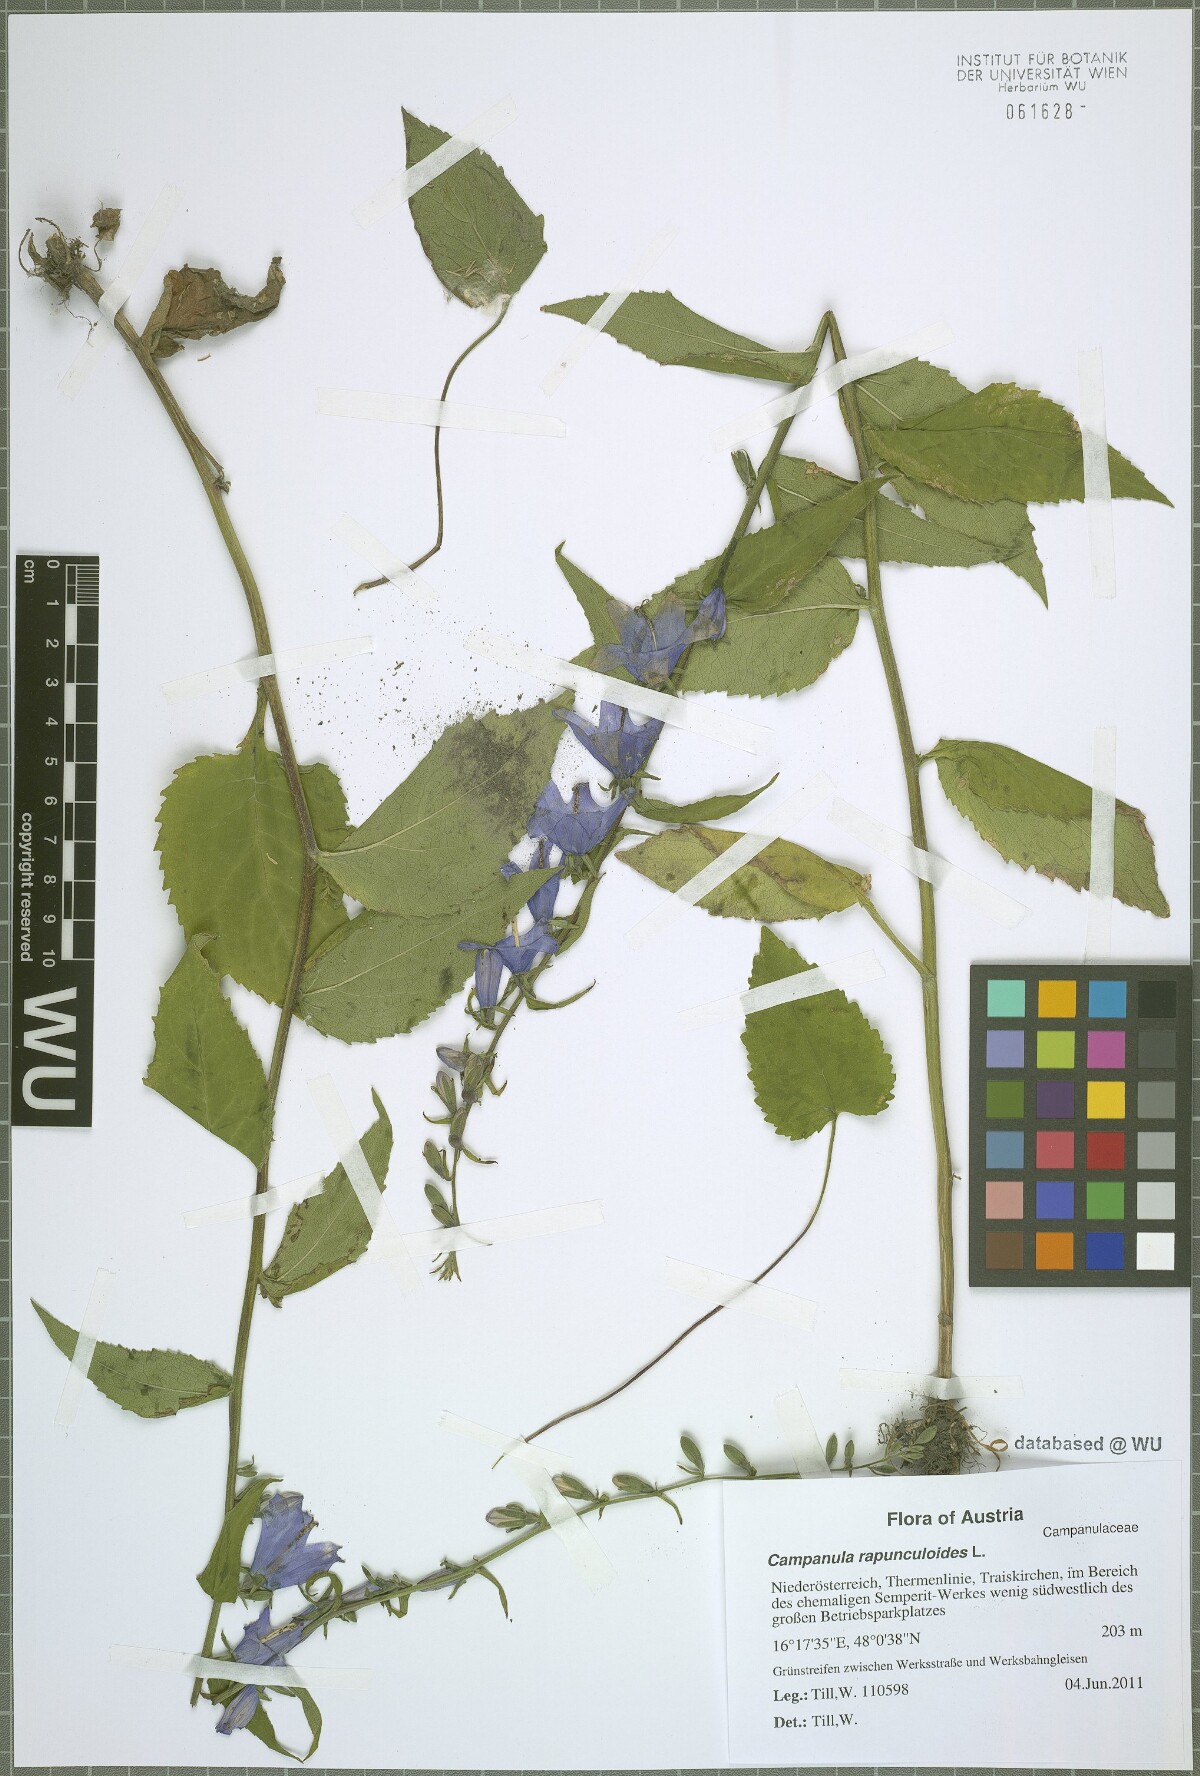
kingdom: Plantae
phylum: Tracheophyta
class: Magnoliopsida
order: Asterales
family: Campanulaceae
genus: Campanula
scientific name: Campanula rapunculoides
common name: Creeping bellflower
